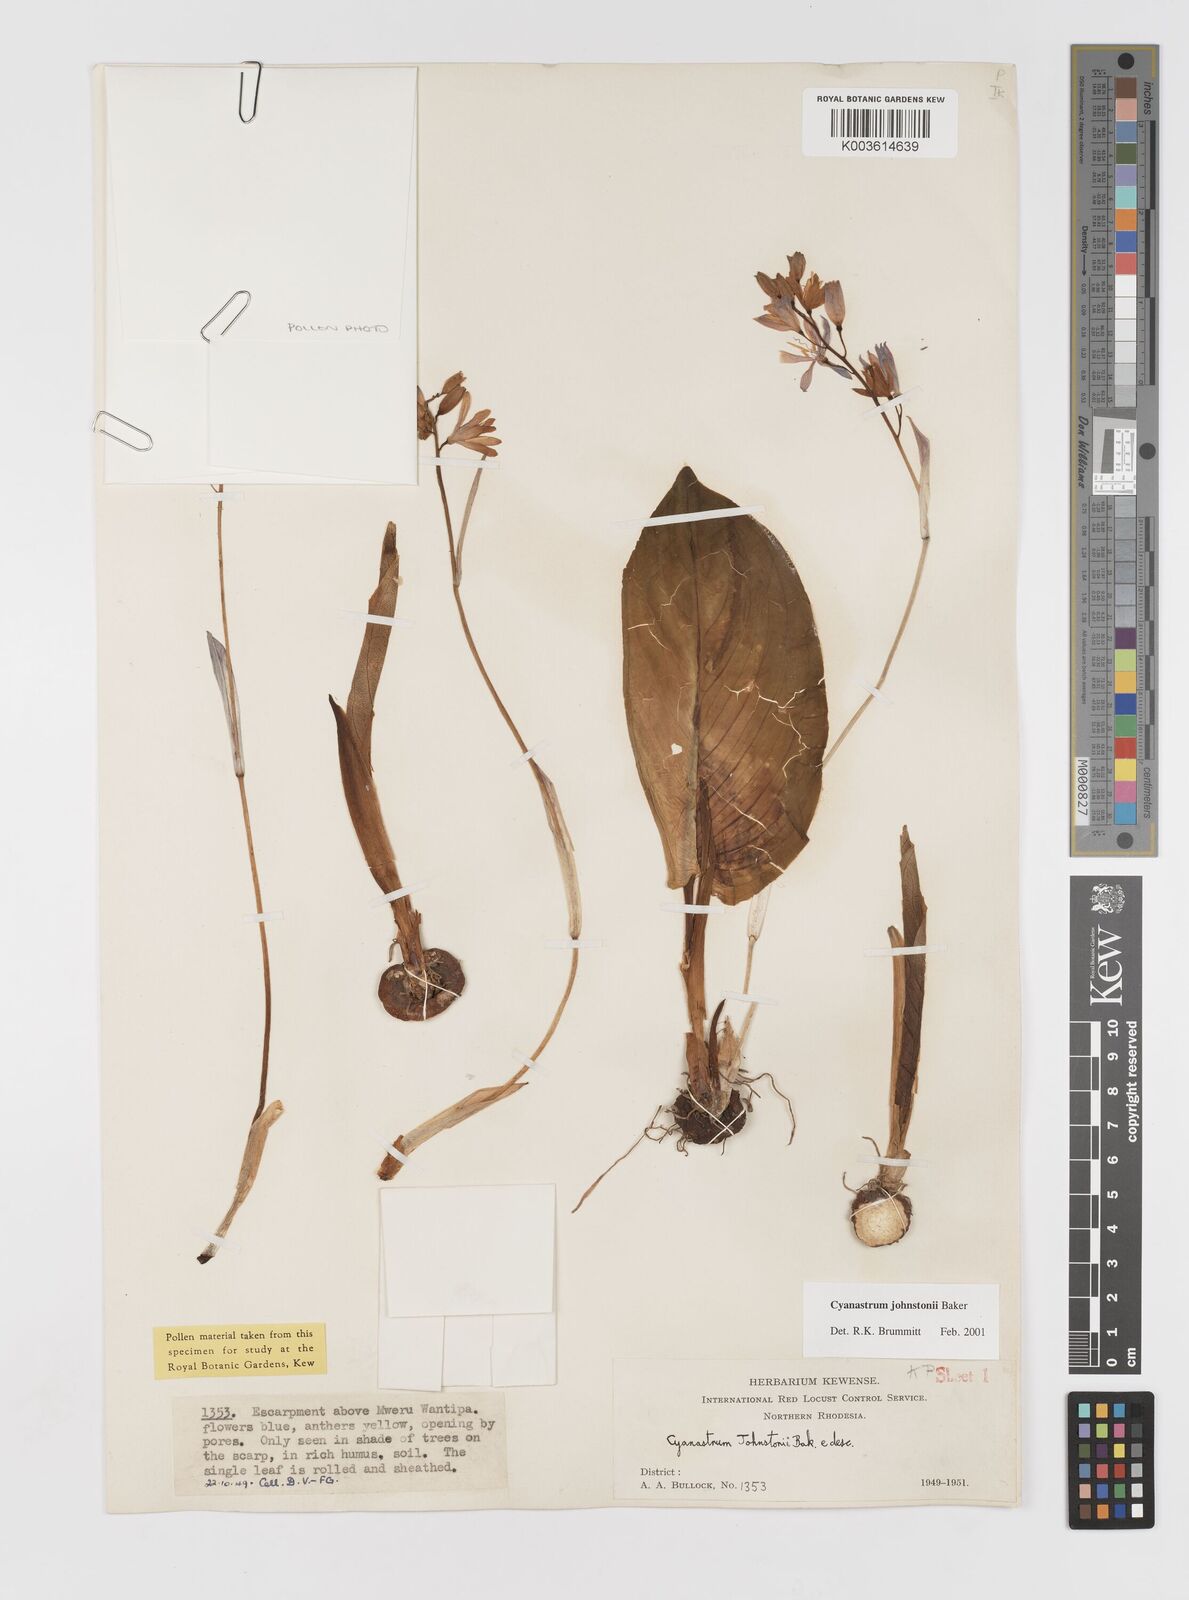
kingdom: Plantae
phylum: Tracheophyta
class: Liliopsida
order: Asparagales
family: Tecophilaeaceae
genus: Cyanastrum
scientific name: Cyanastrum johnstonii
